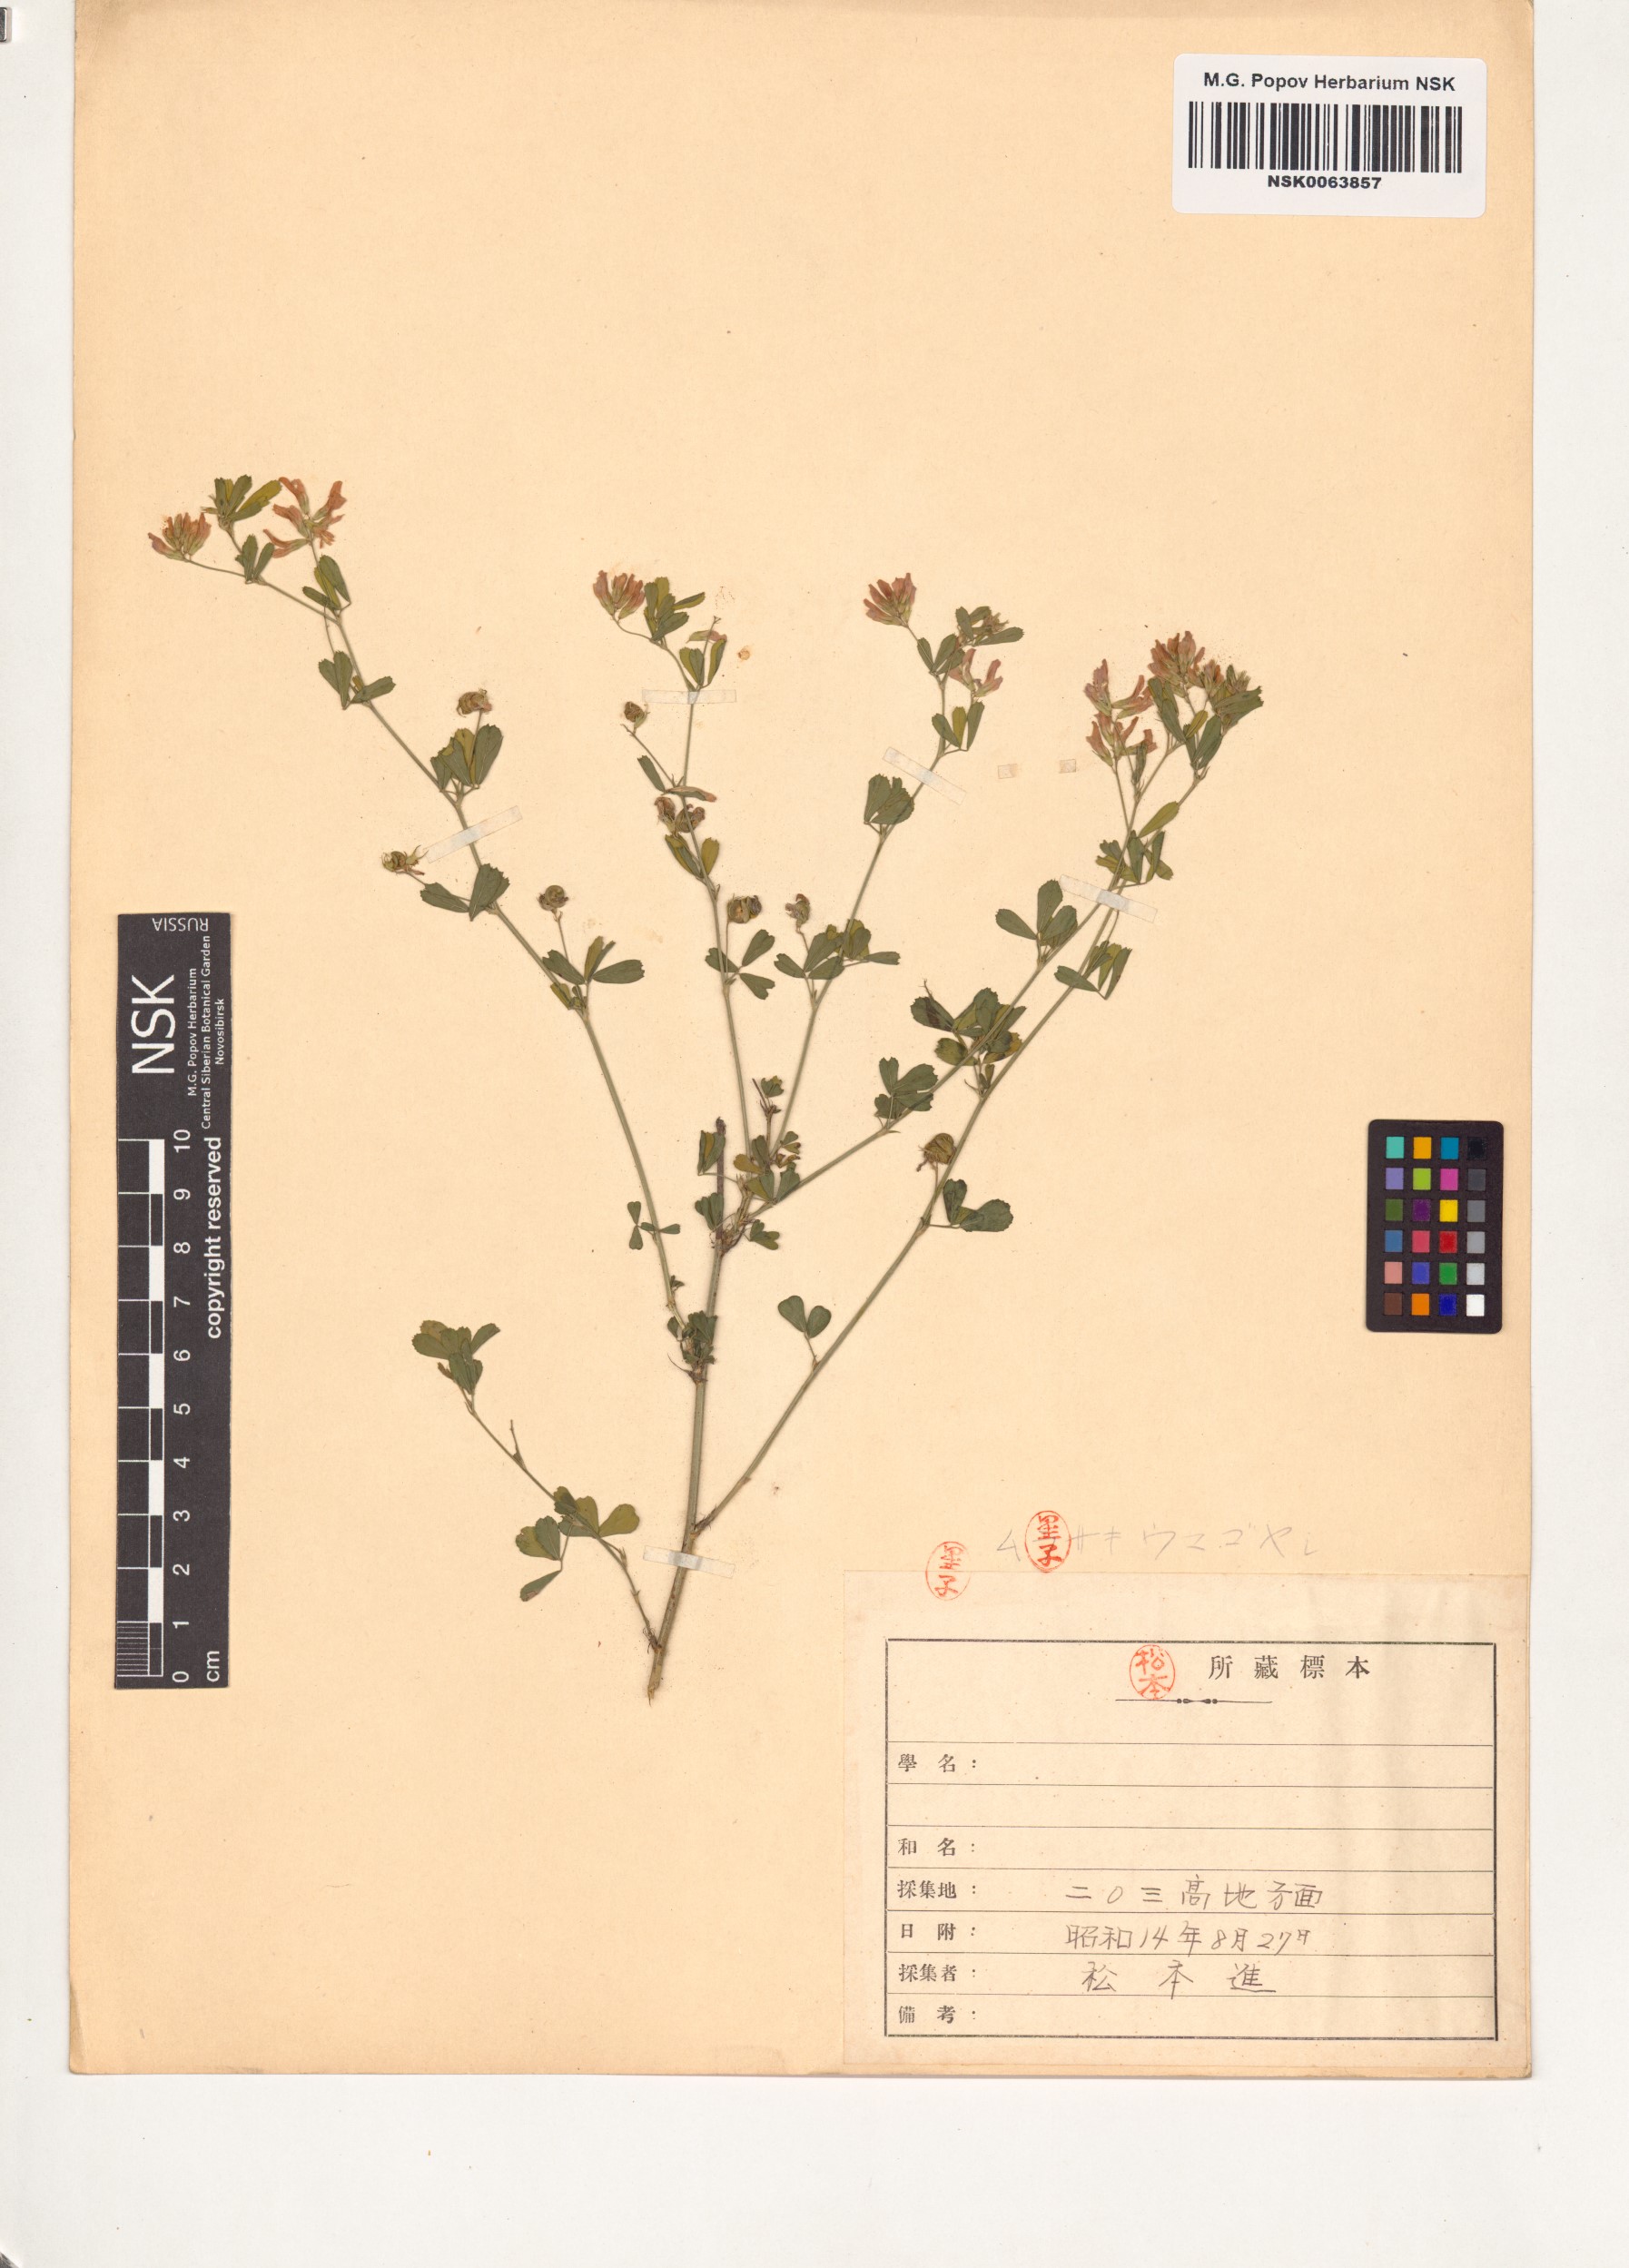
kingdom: Plantae
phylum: Tracheophyta
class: Magnoliopsida
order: Fabales
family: Fabaceae
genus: Medicago
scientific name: Medicago sativa
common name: Alfalfa
